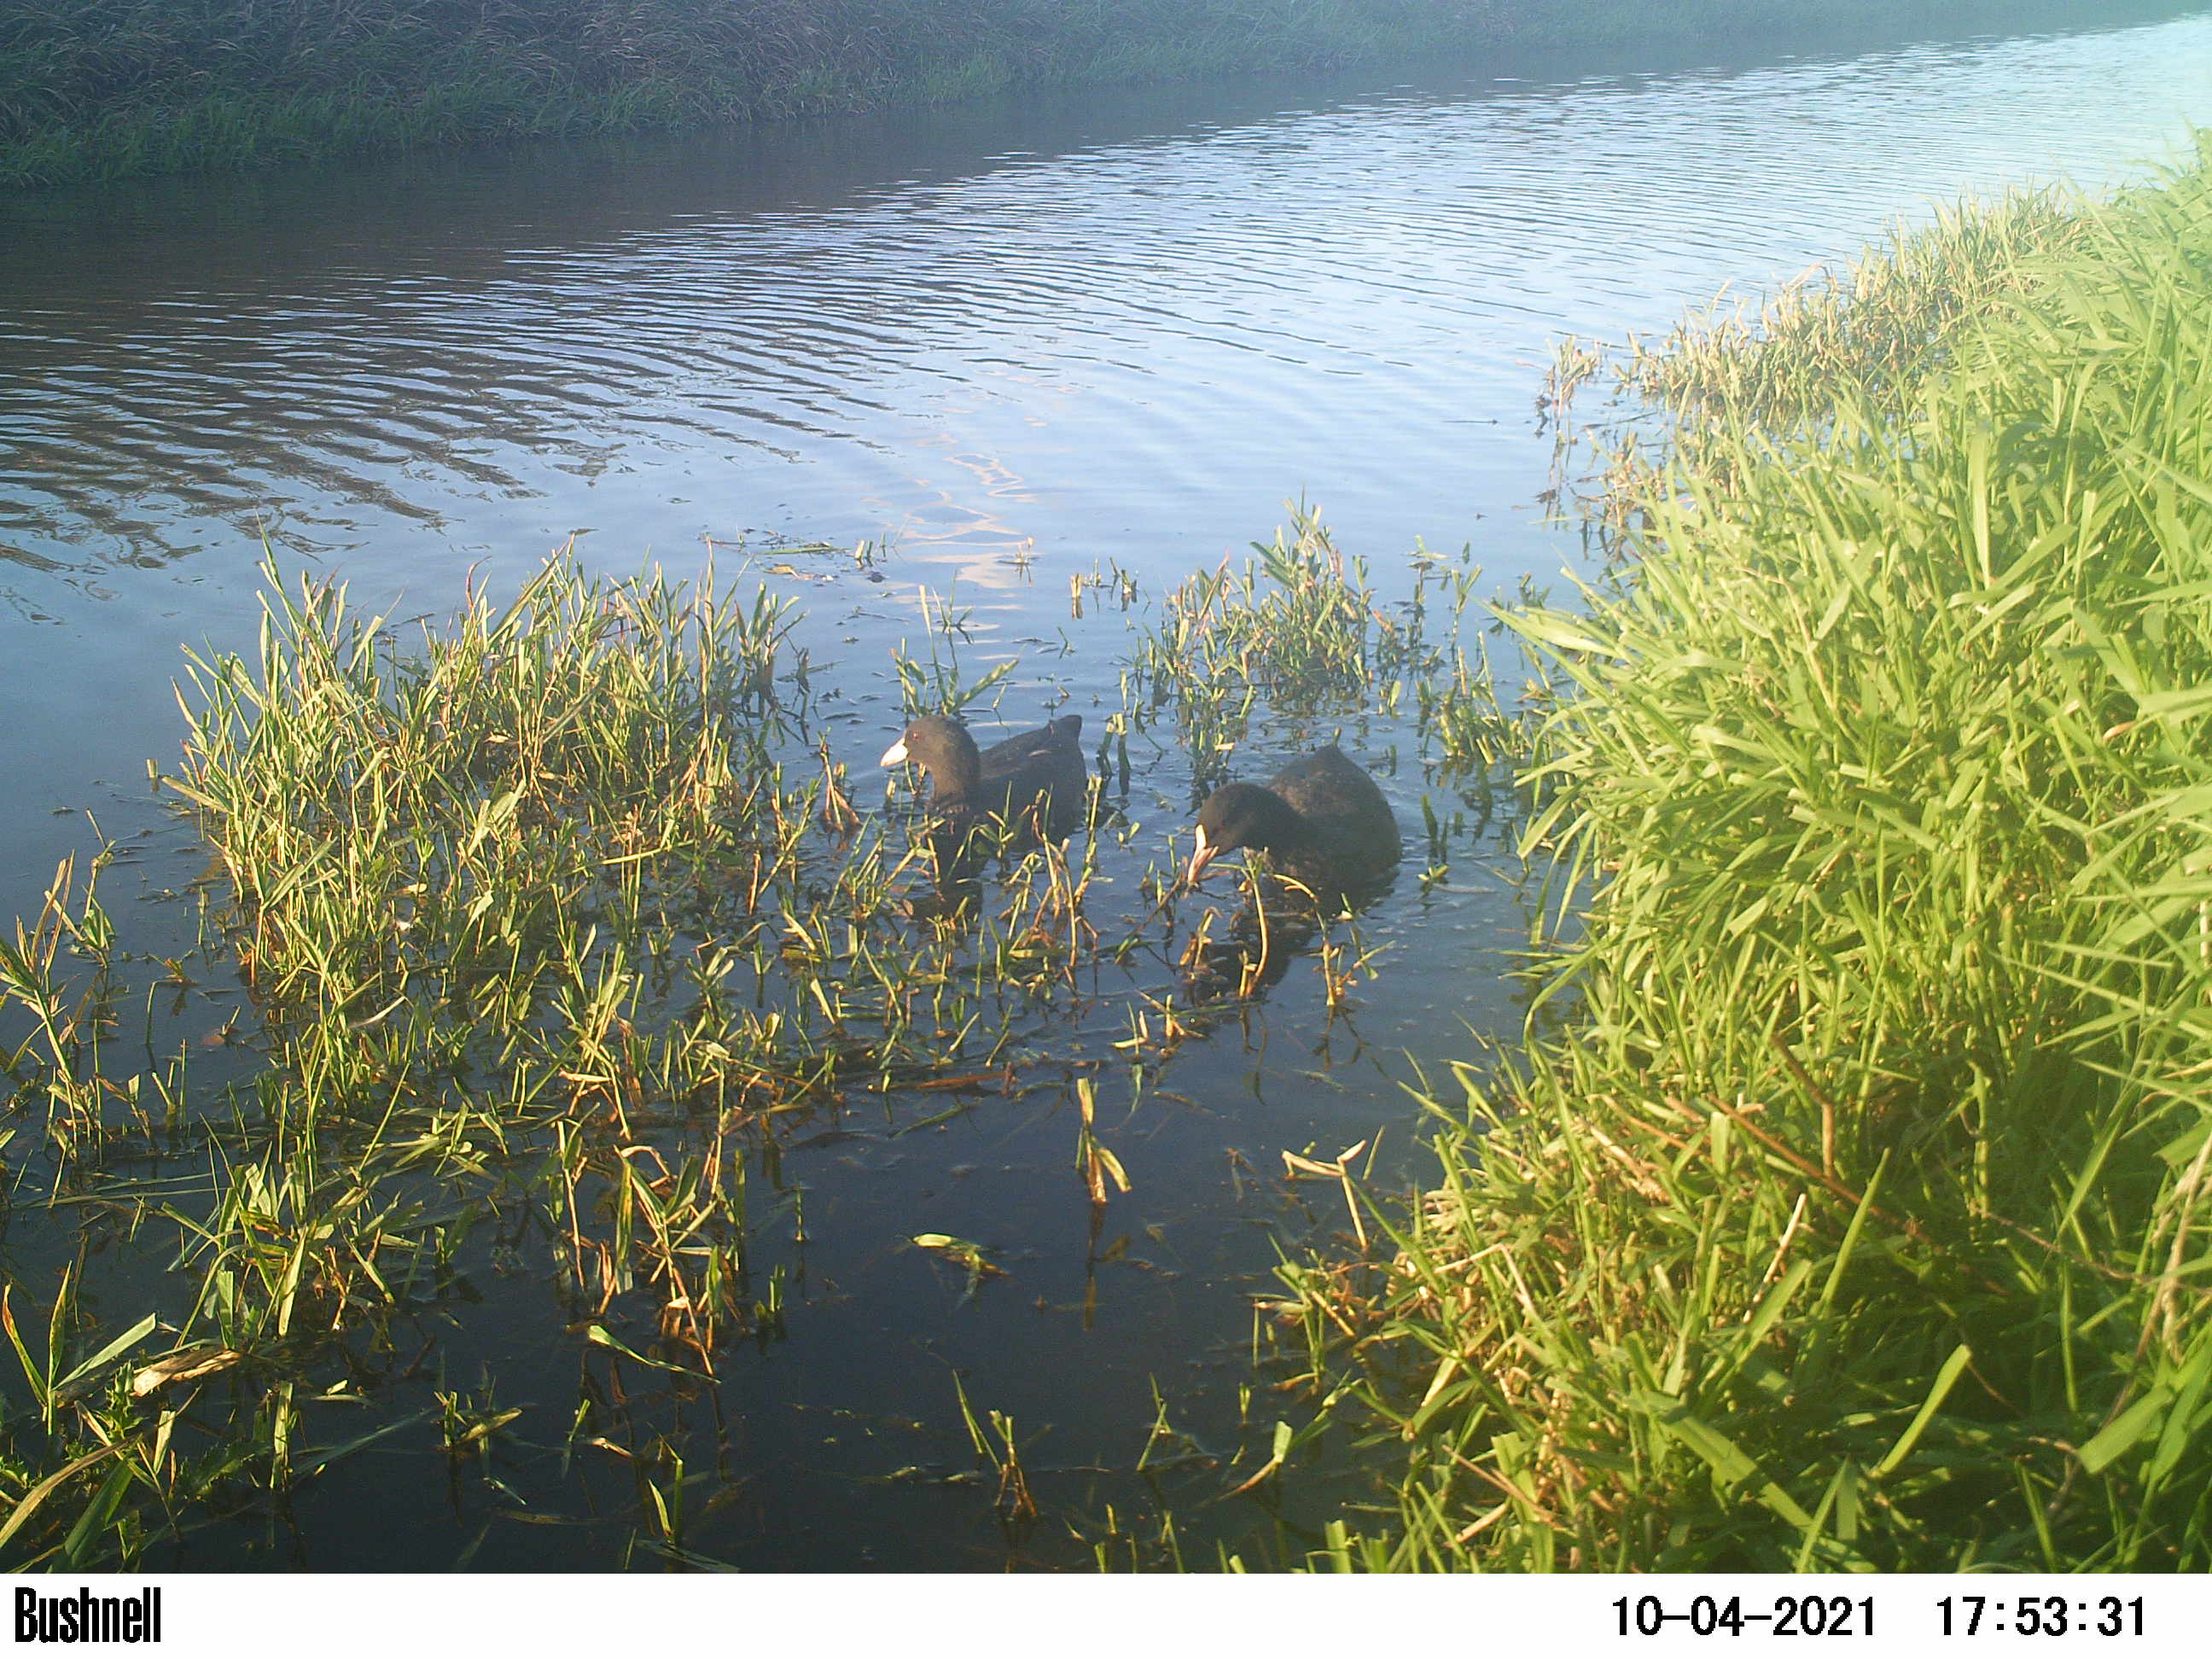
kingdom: Animalia
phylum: Chordata
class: Aves
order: Anseriformes
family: Anatidae
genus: Anas
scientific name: Anas
